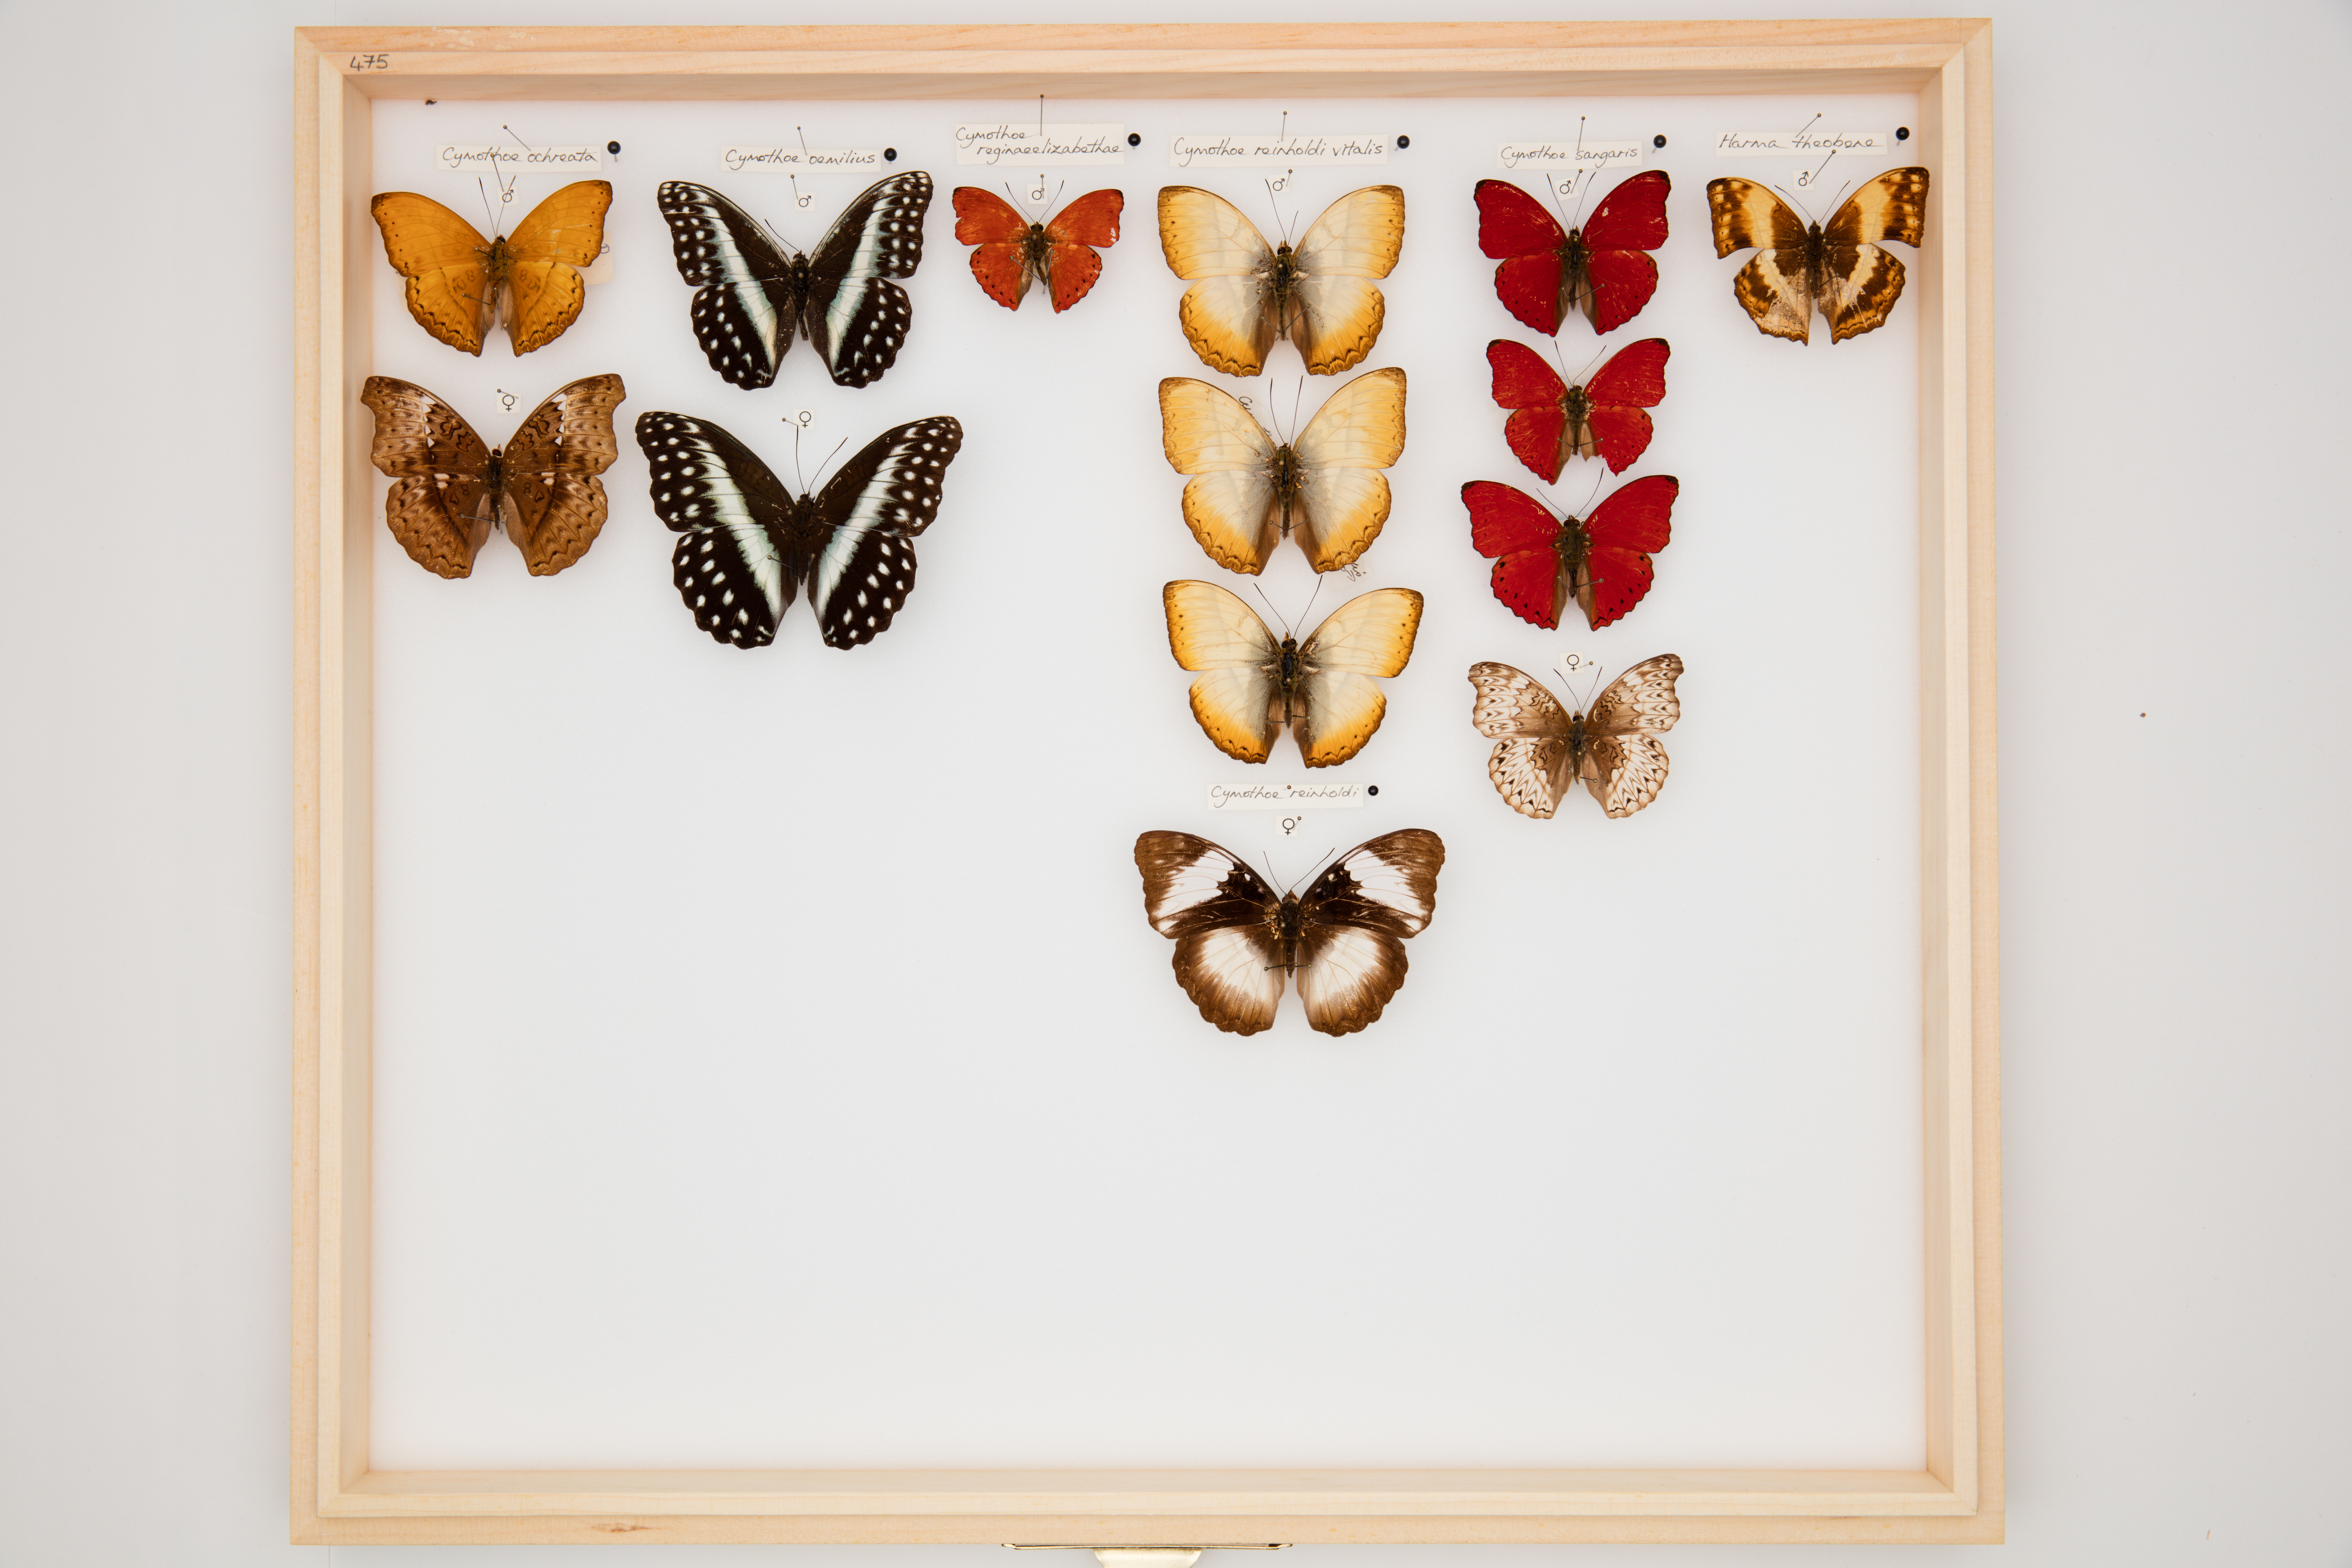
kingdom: Animalia
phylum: Arthropoda
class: Insecta
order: Lepidoptera
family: Nymphalidae
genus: Cymothoe
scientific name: Cymothoe oemilius
